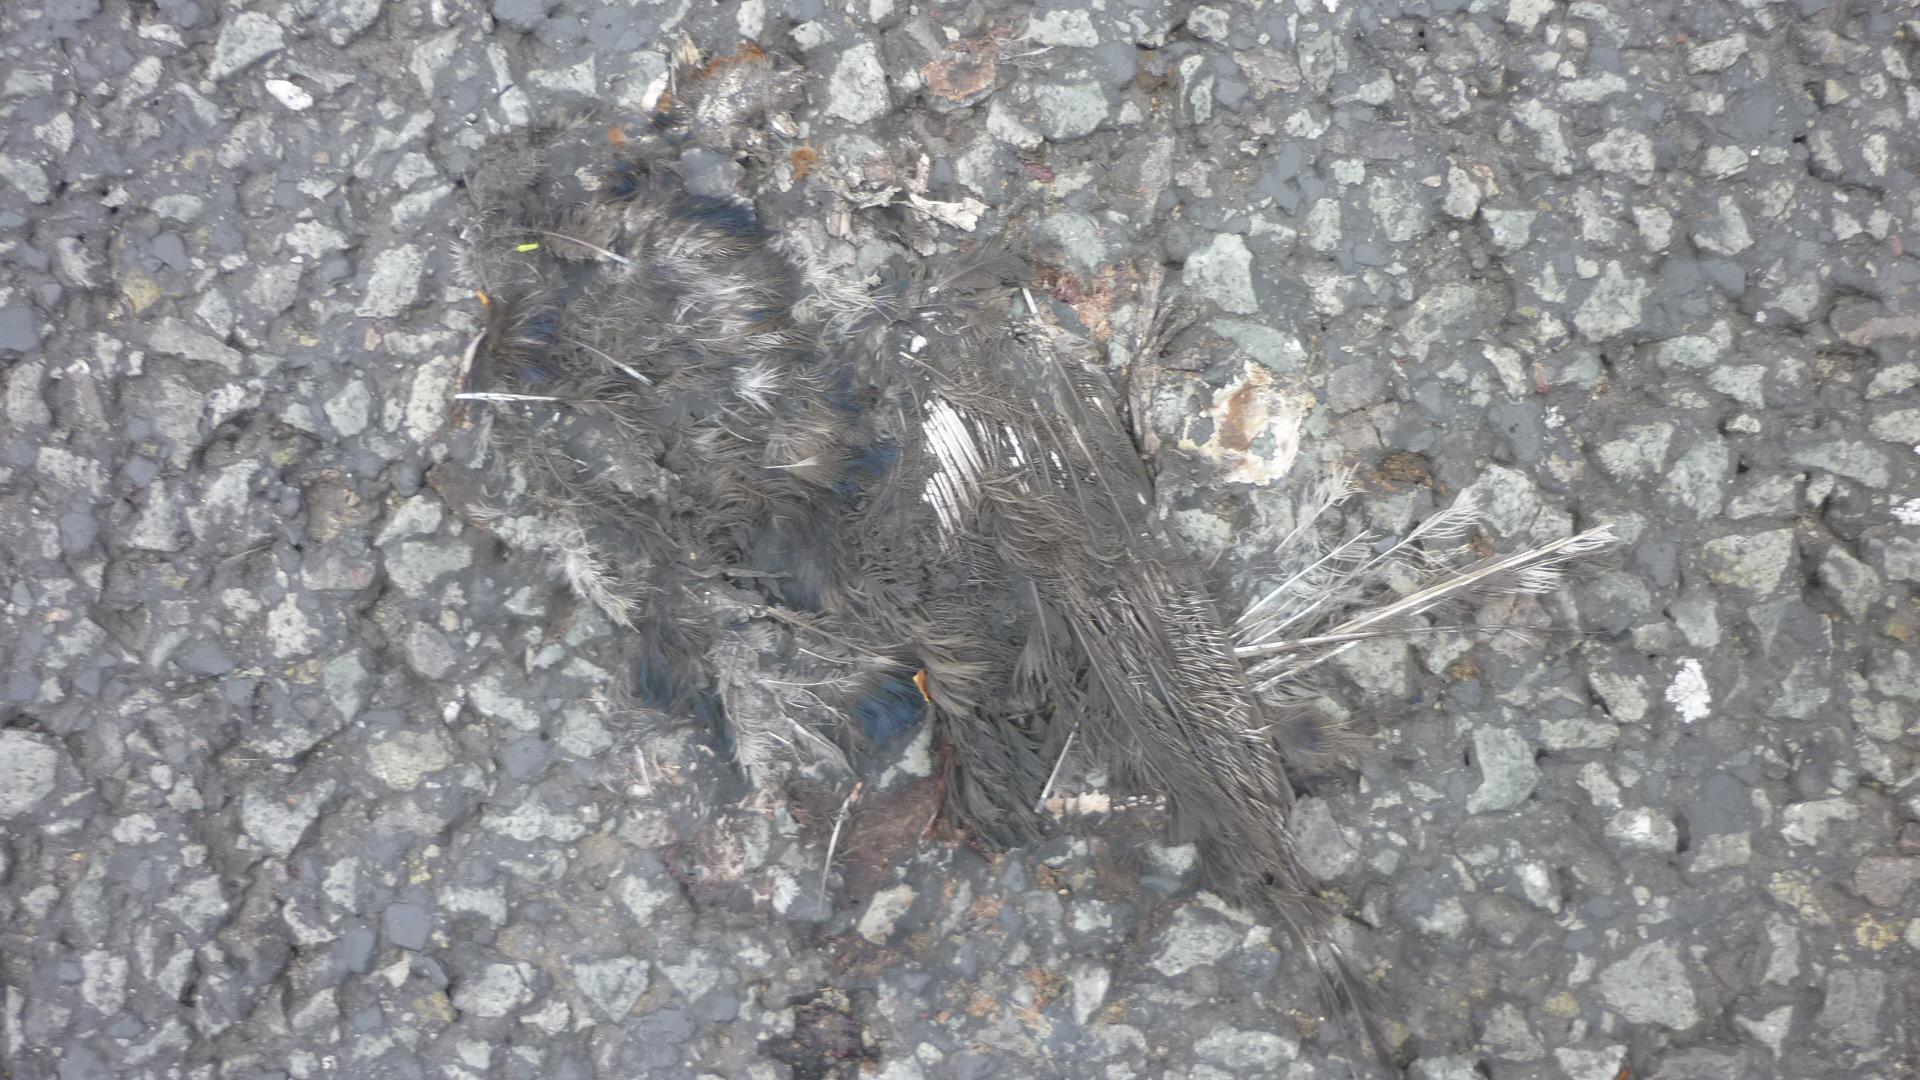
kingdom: Animalia
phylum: Chordata
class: Aves
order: Passeriformes
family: Hirundinidae
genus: Hirundo
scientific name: Hirundo rustica
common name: Barn swallow
